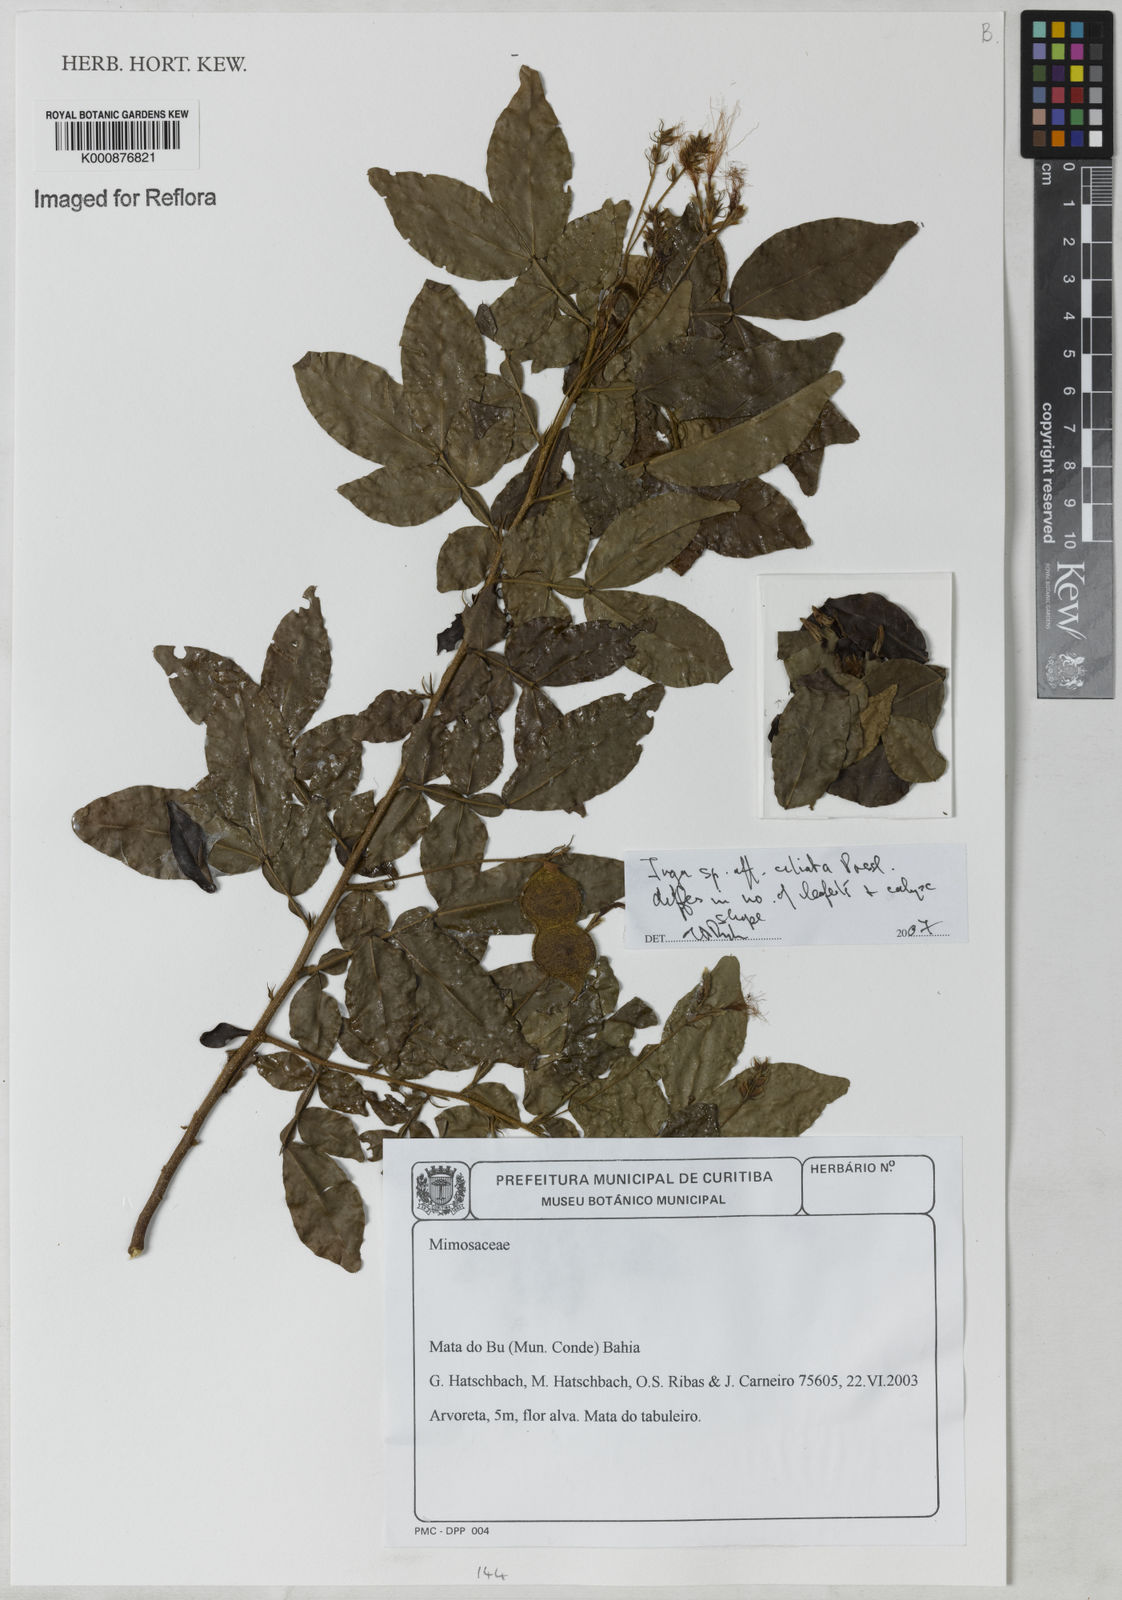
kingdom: Plantae
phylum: Tracheophyta
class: Magnoliopsida
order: Fabales
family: Fabaceae
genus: Inga
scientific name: Inga ciliata
